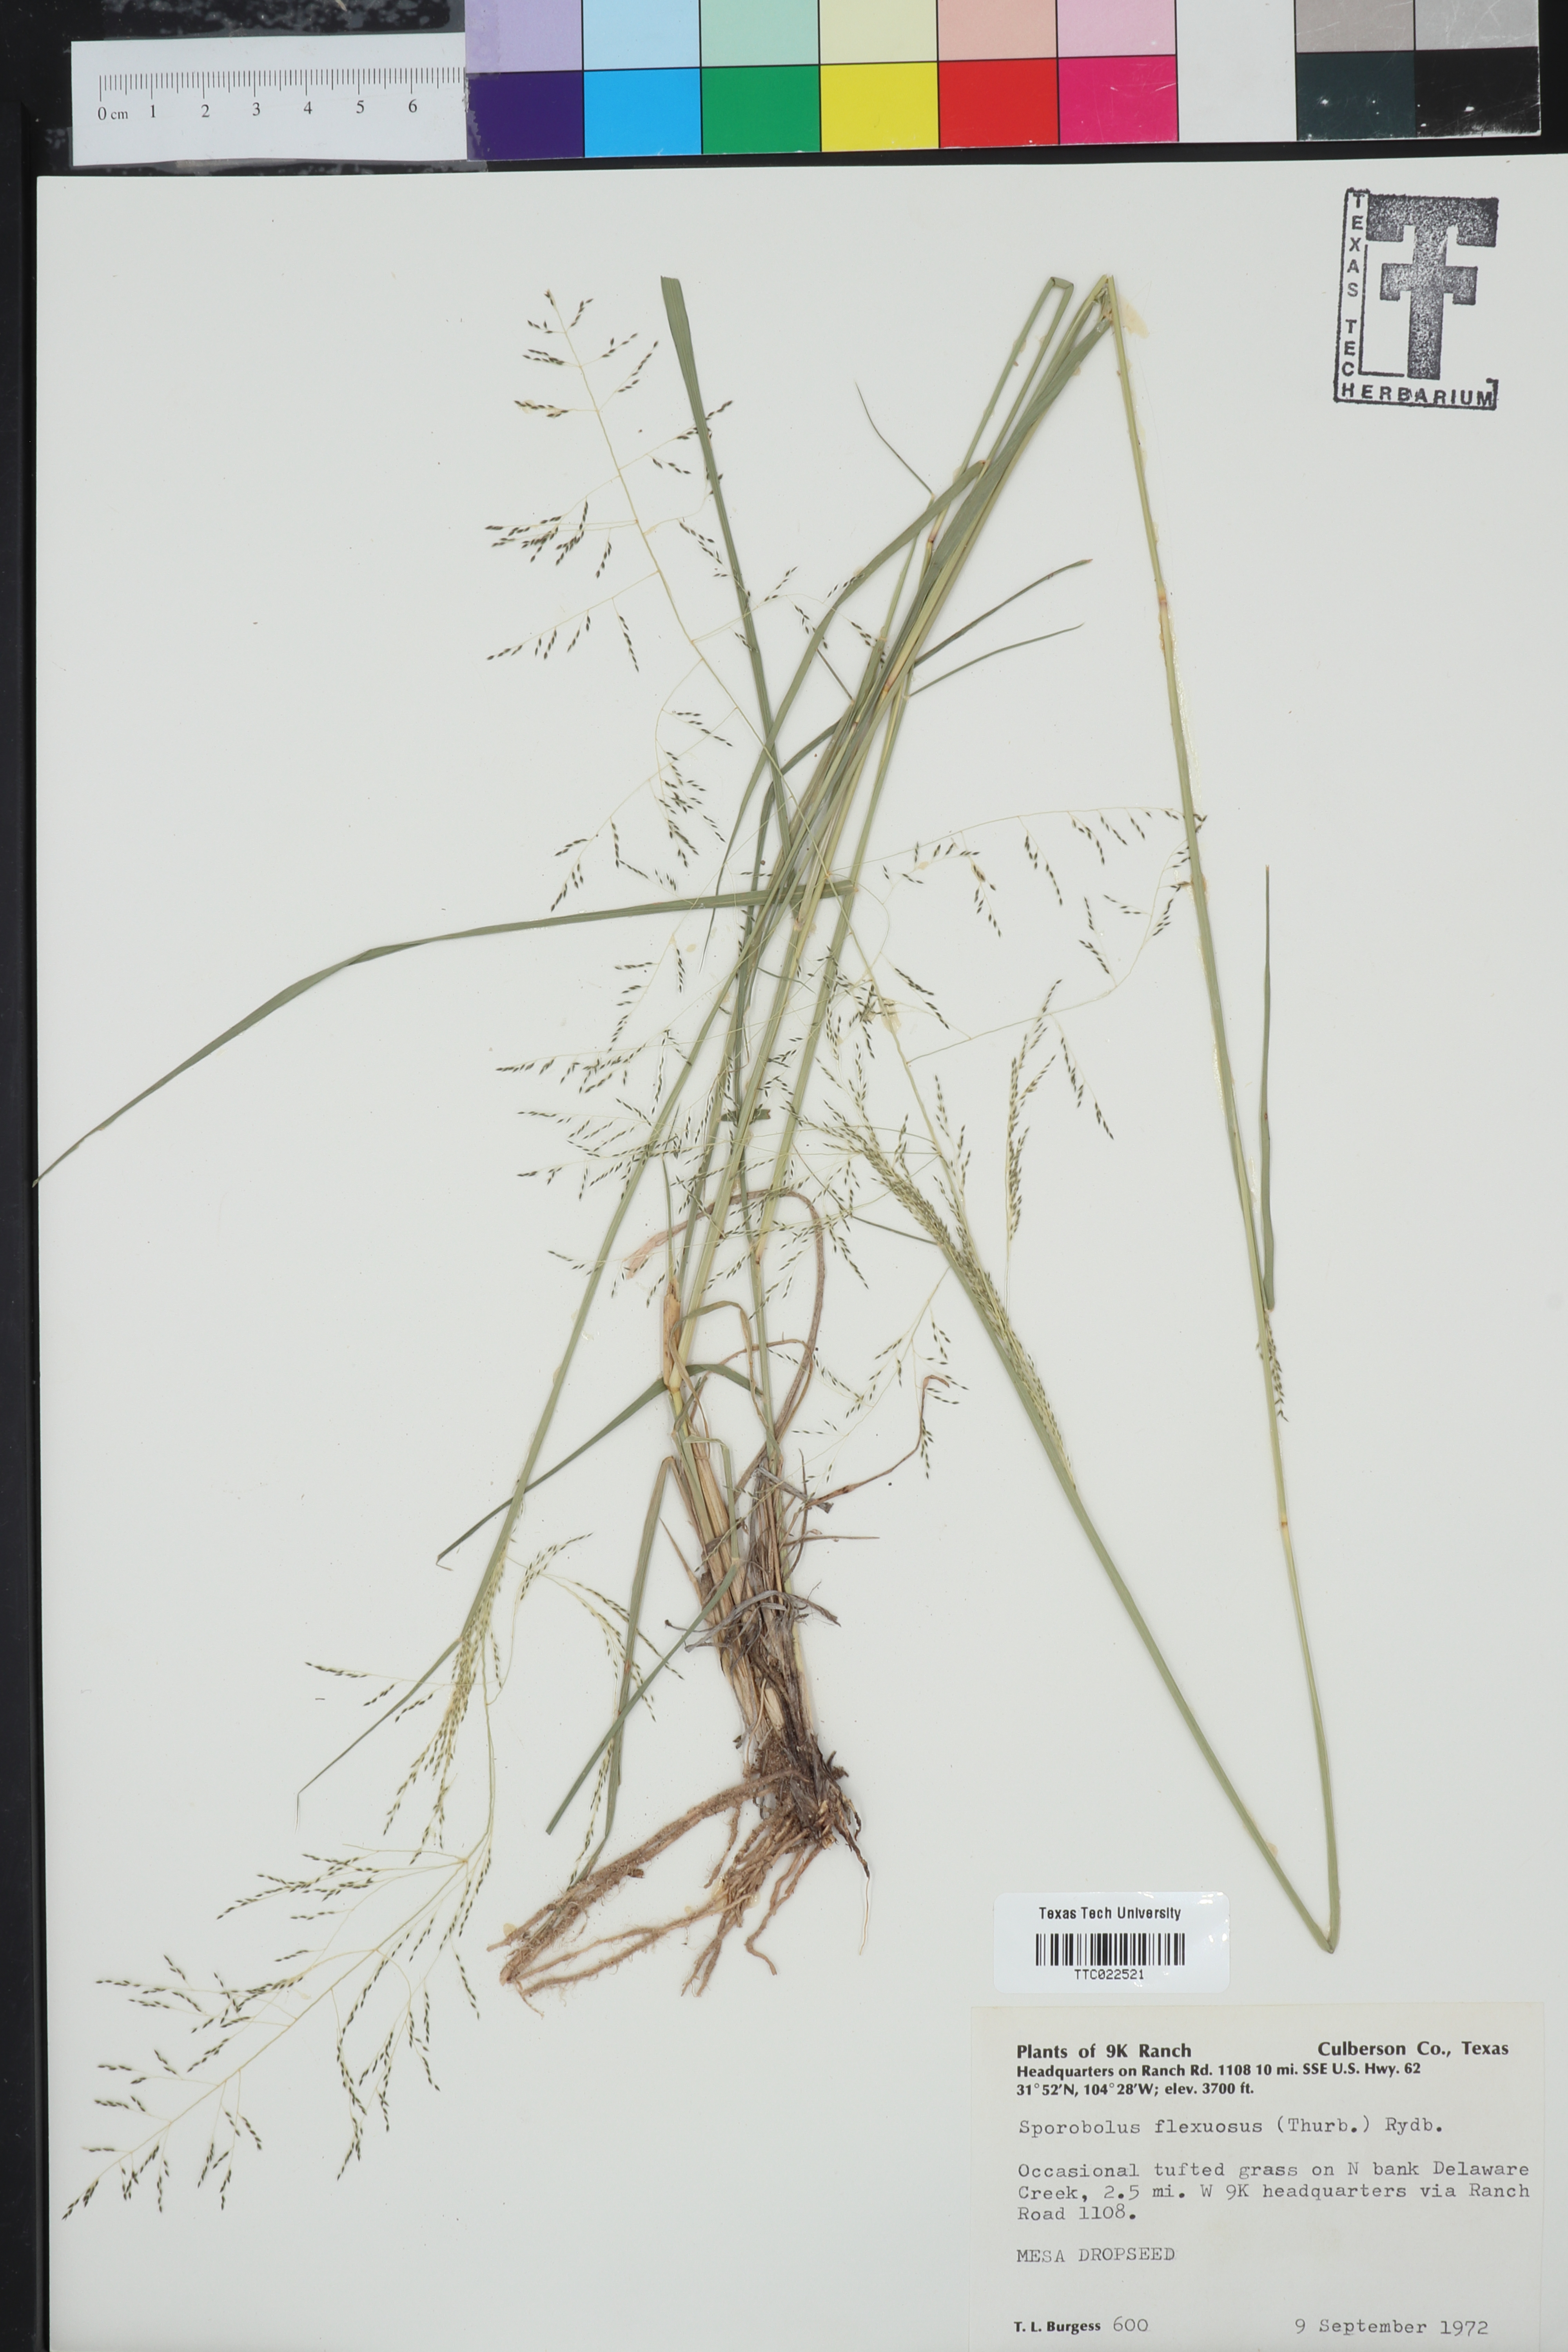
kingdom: Plantae
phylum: Tracheophyta
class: Liliopsida
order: Poales
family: Poaceae
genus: Sporobolus
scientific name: Sporobolus flexuosus
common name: Mesa dropseed
